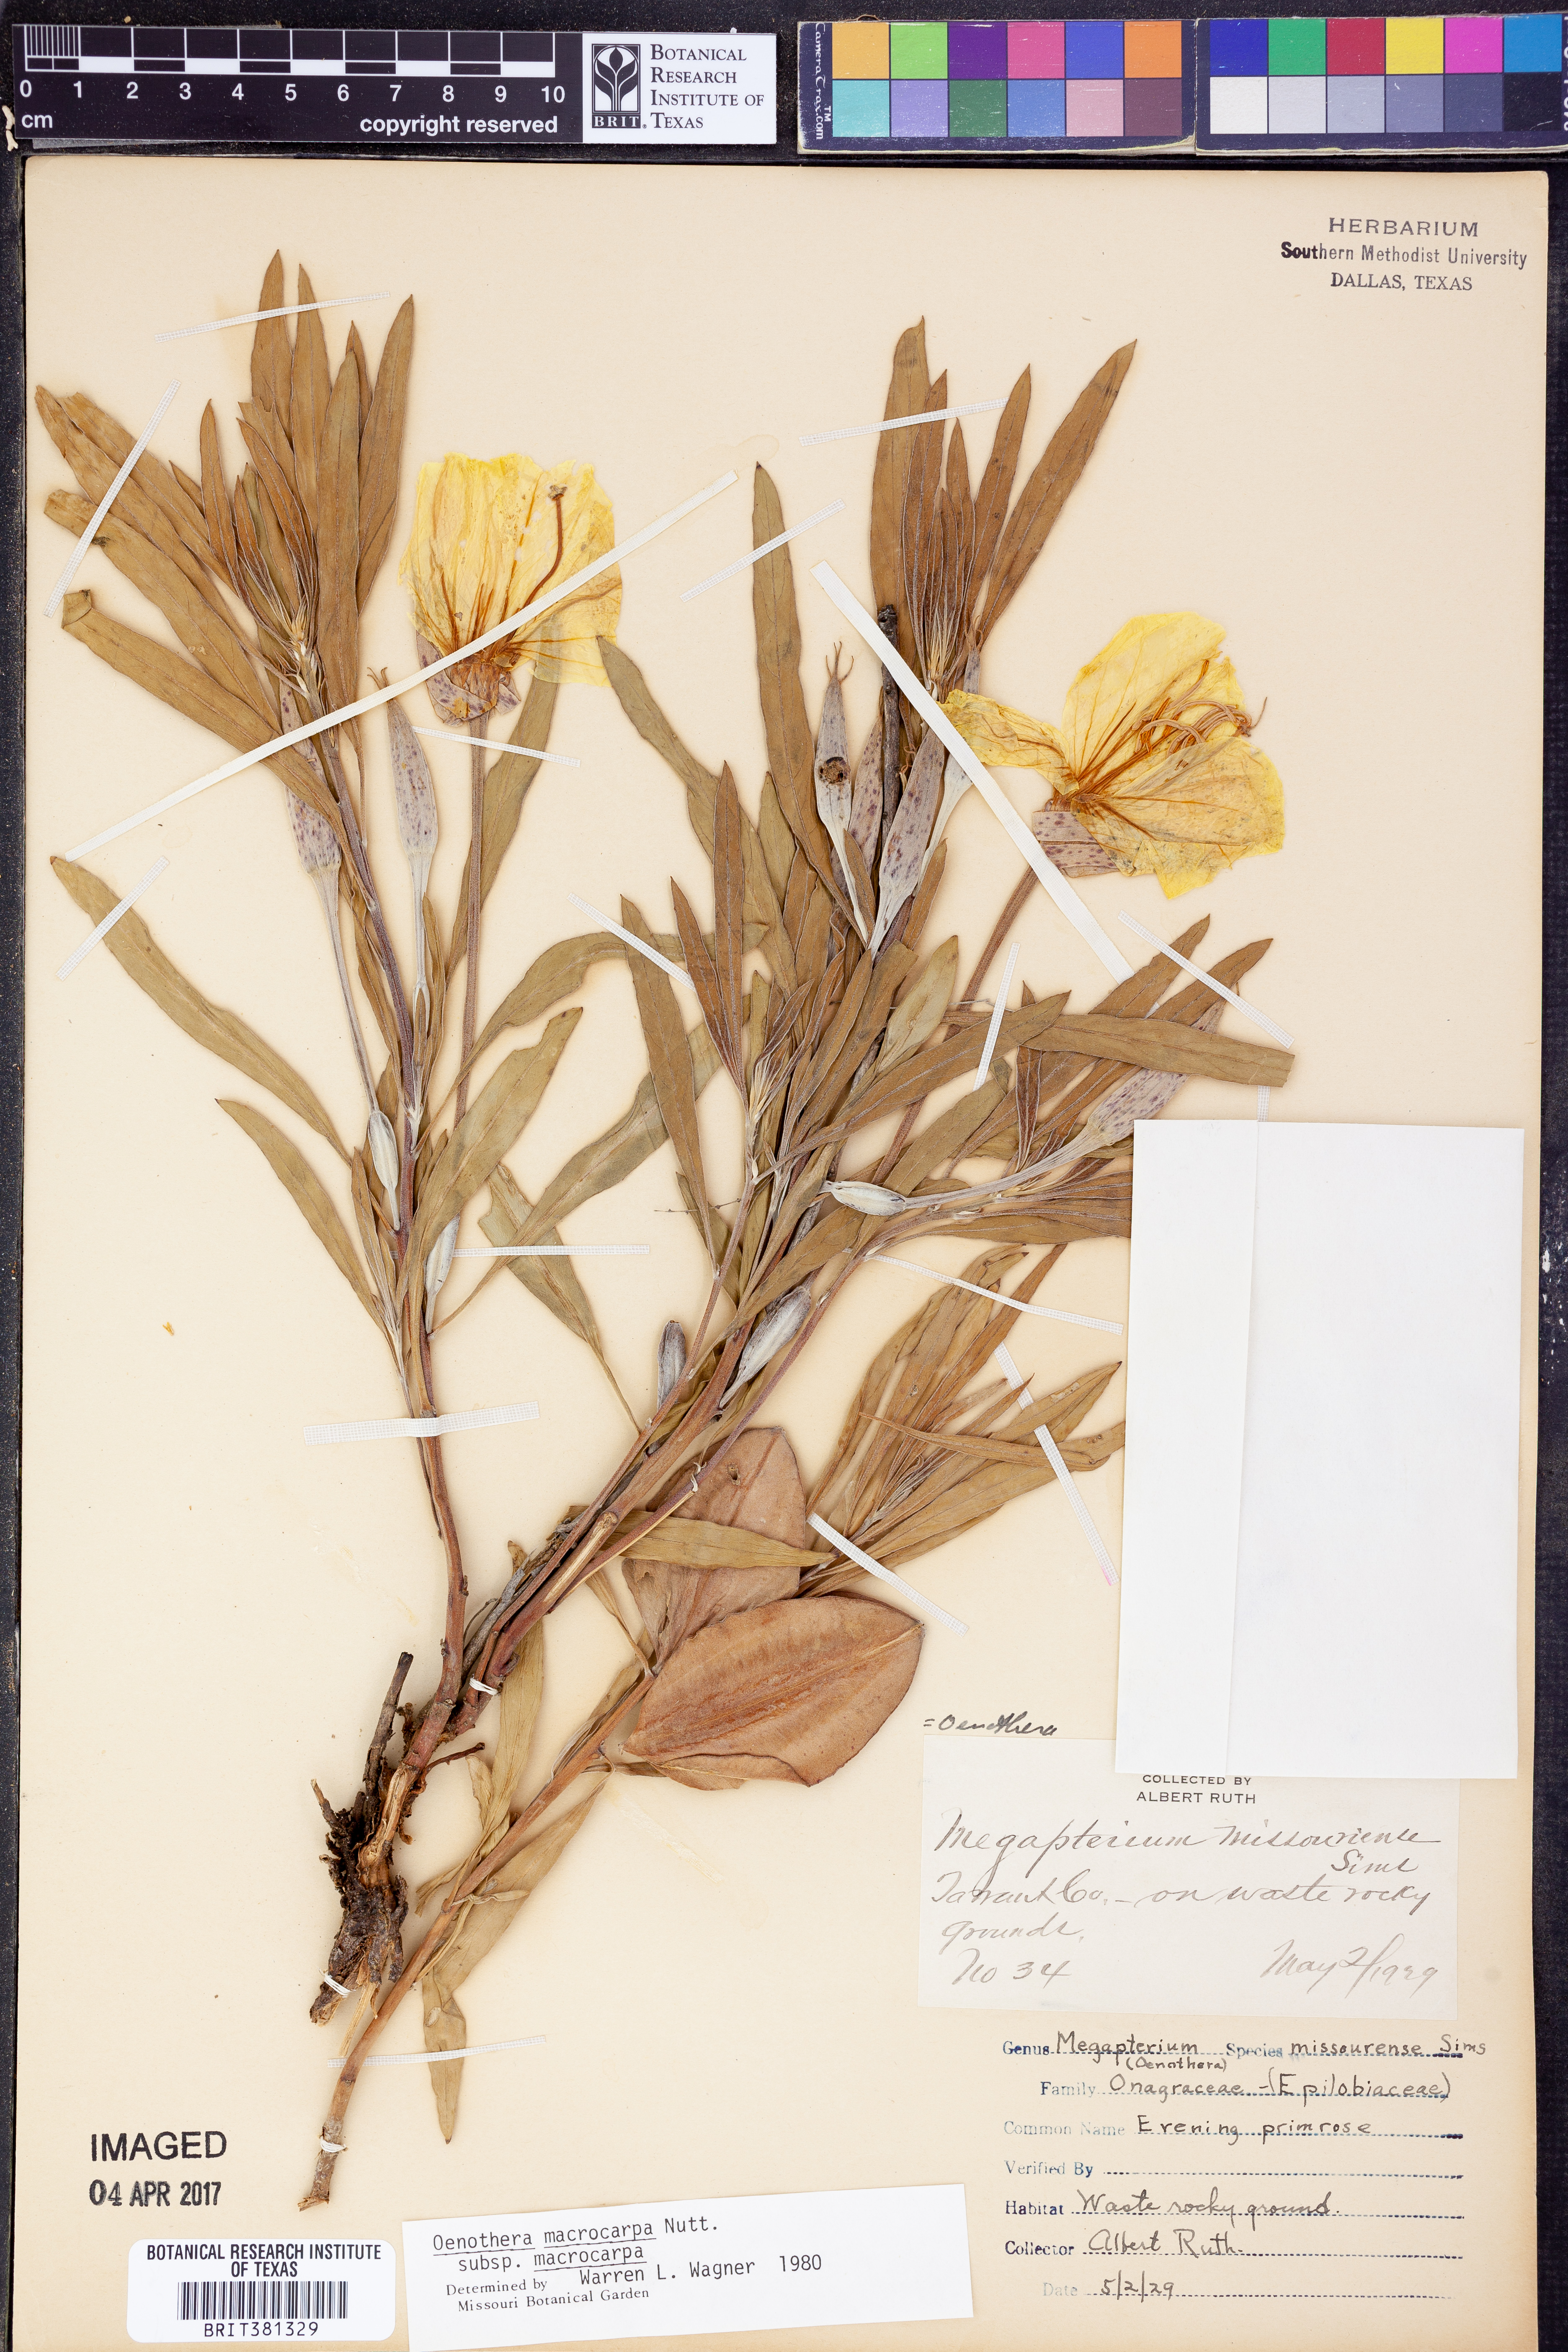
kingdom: Plantae
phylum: Tracheophyta
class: Magnoliopsida
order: Myrtales
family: Onagraceae
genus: Oenothera
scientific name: Oenothera macrocarpa
